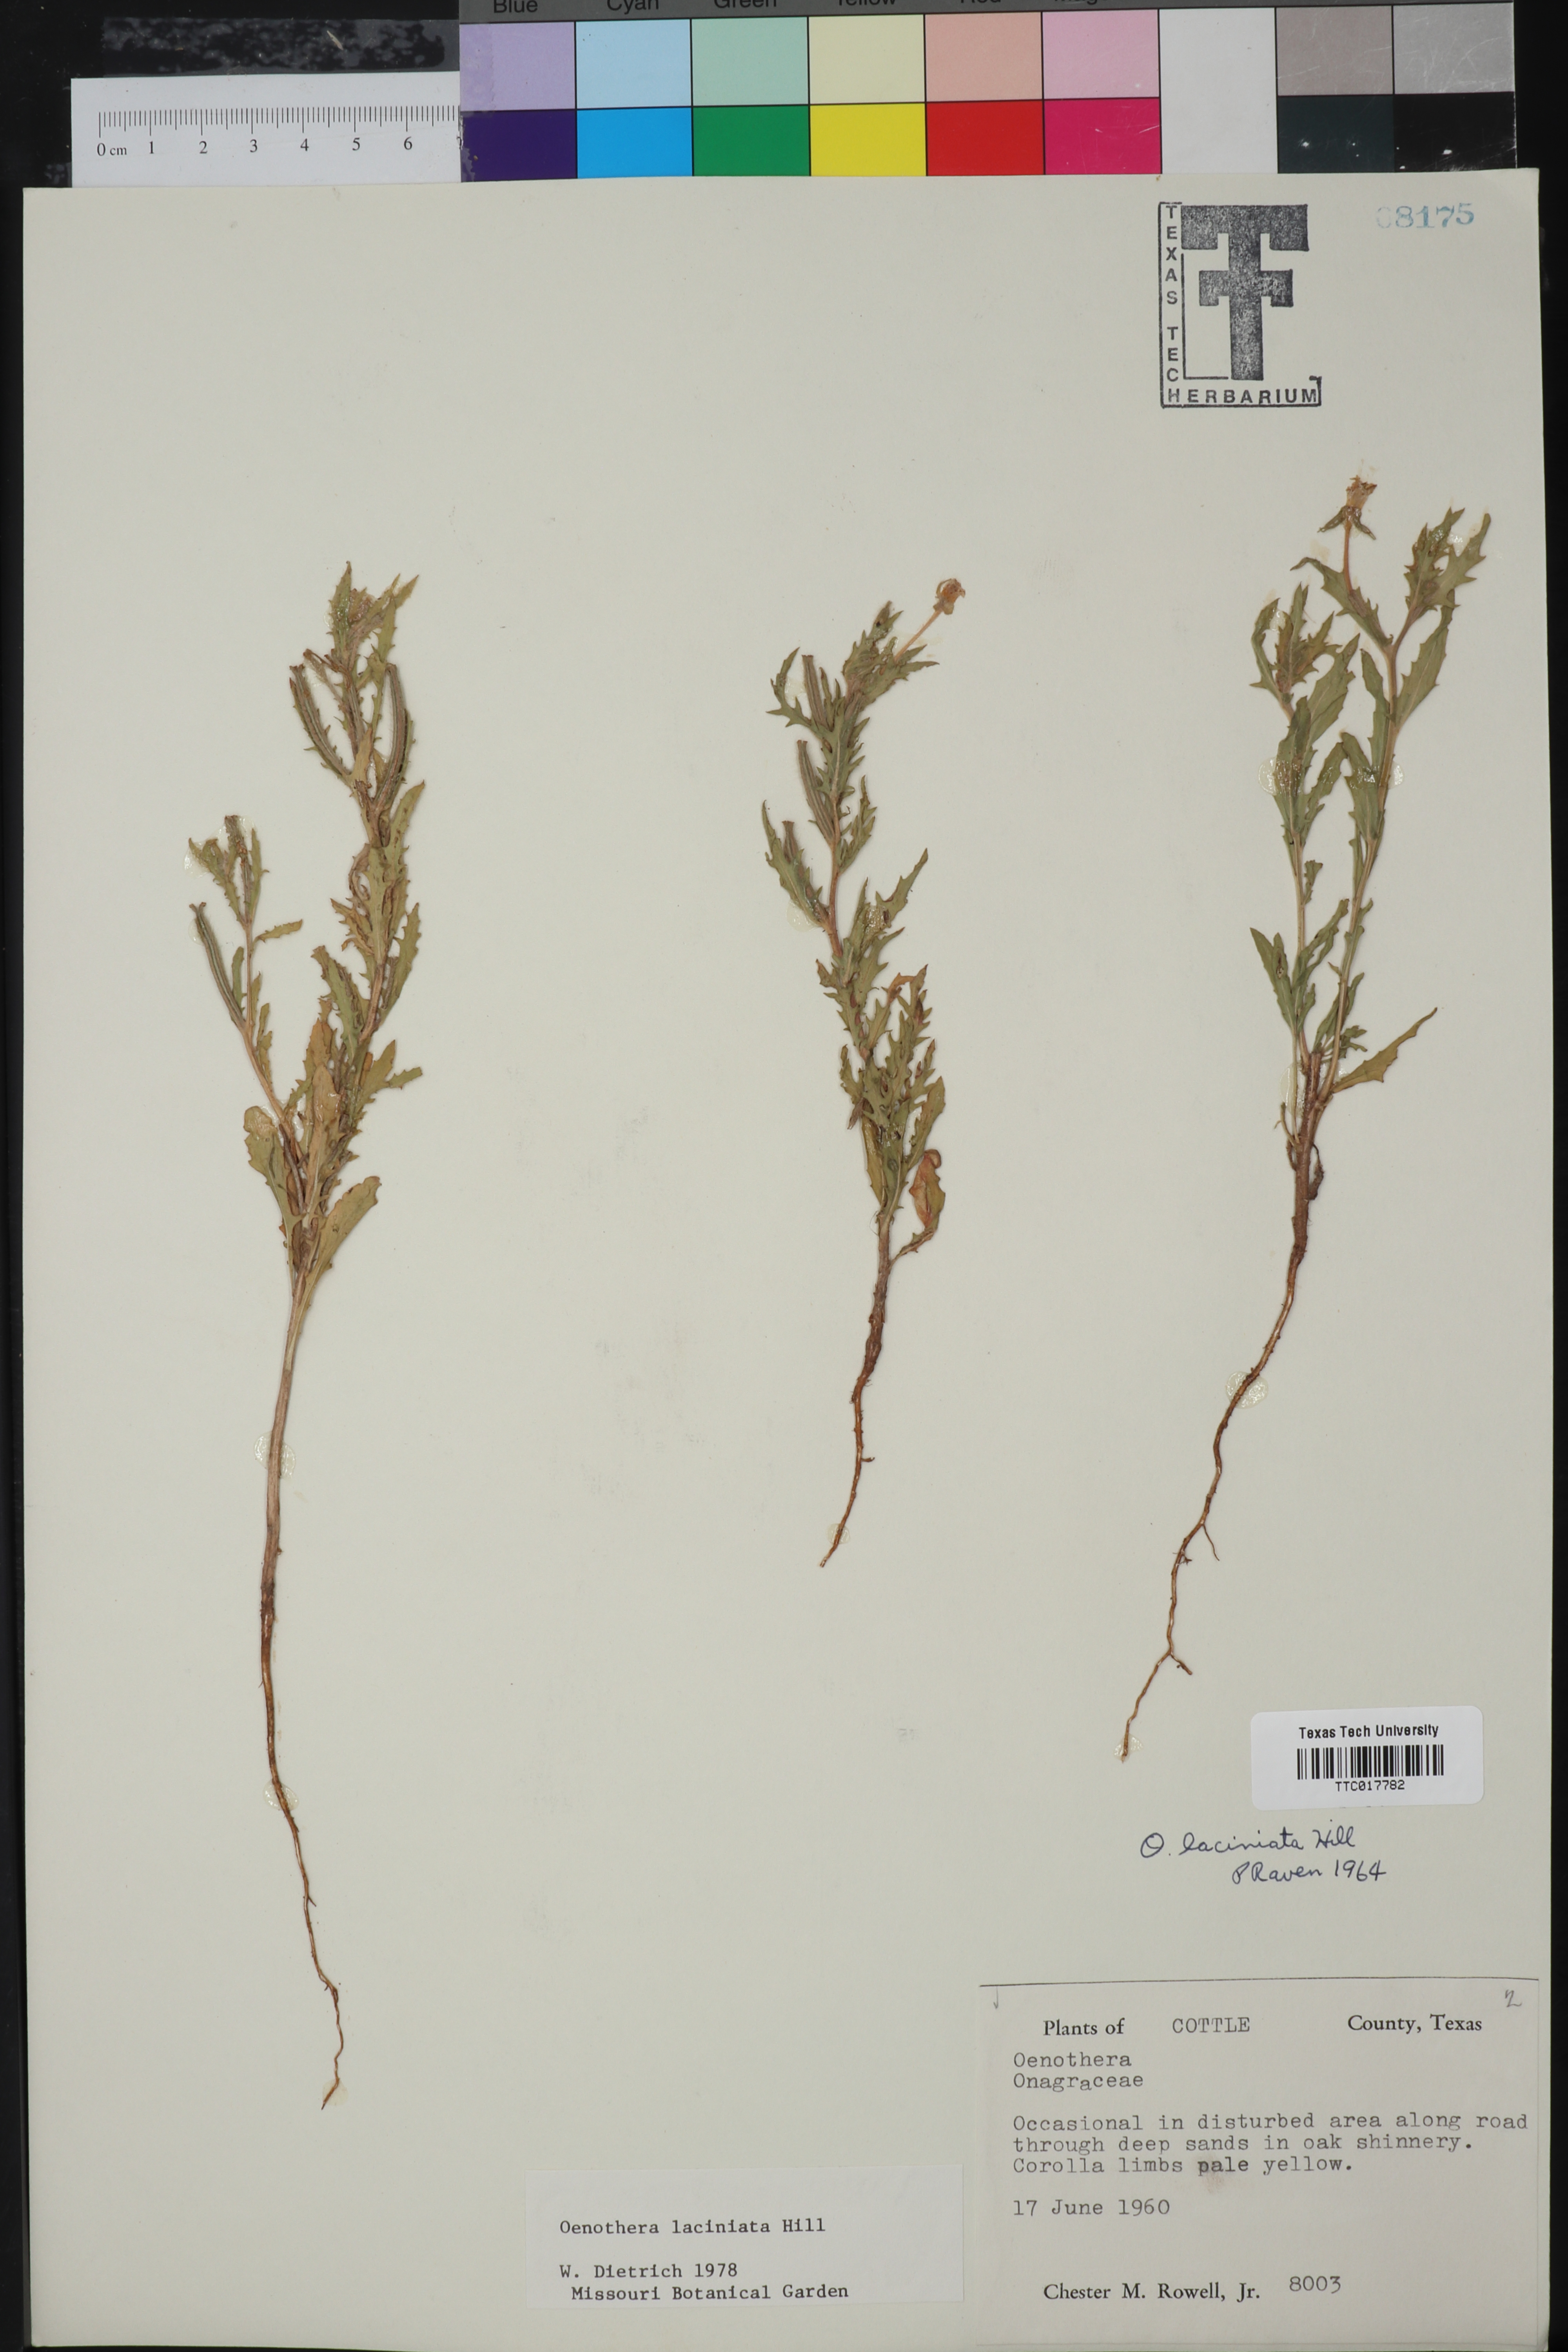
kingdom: Plantae
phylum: Tracheophyta
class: Magnoliopsida
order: Myrtales
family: Onagraceae
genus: Oenothera
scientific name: Oenothera laciniata
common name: Cut-leaved evening-primrose
